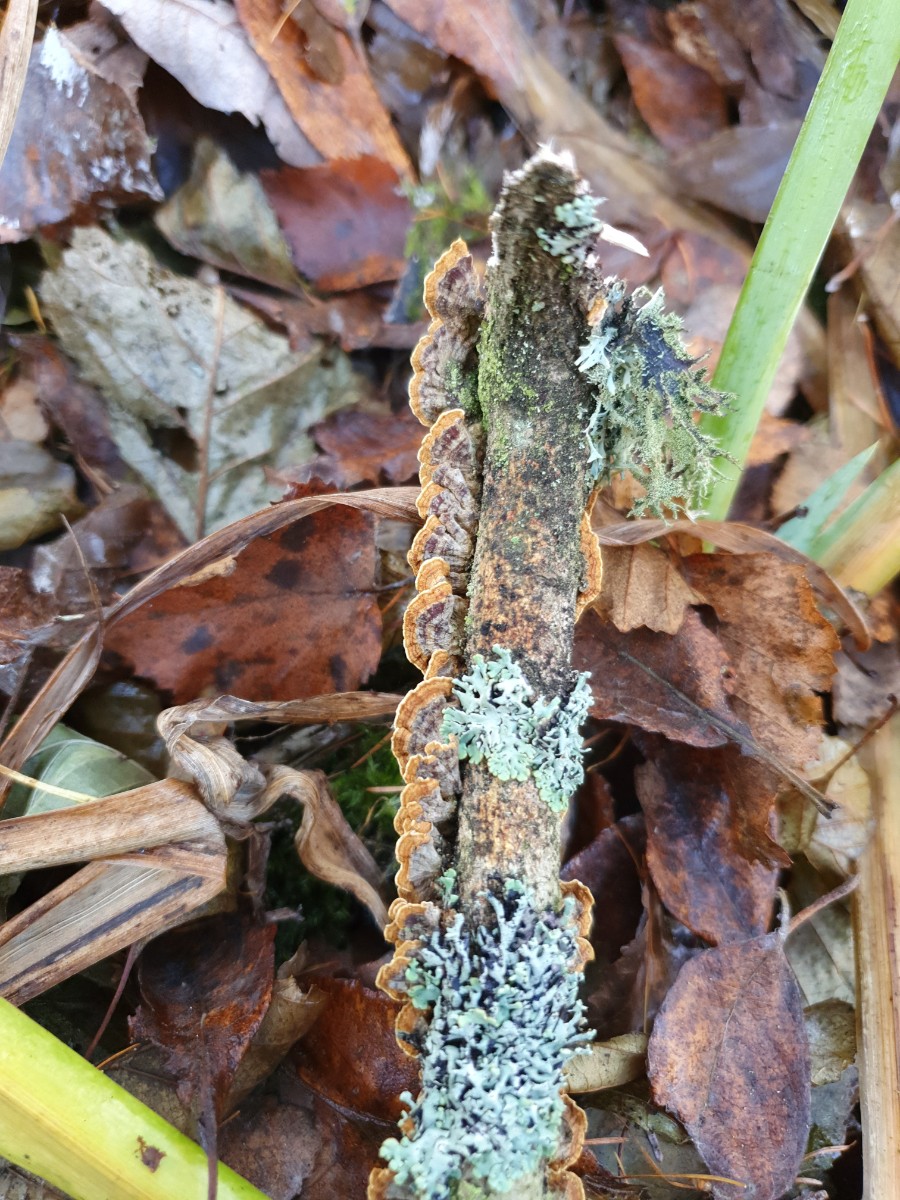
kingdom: Fungi
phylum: Basidiomycota
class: Agaricomycetes
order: Hymenochaetales
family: Hymenochaetaceae
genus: Hydnoporia
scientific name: Hydnoporia tabacina
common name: tobaksbrun ruslædersvamp
